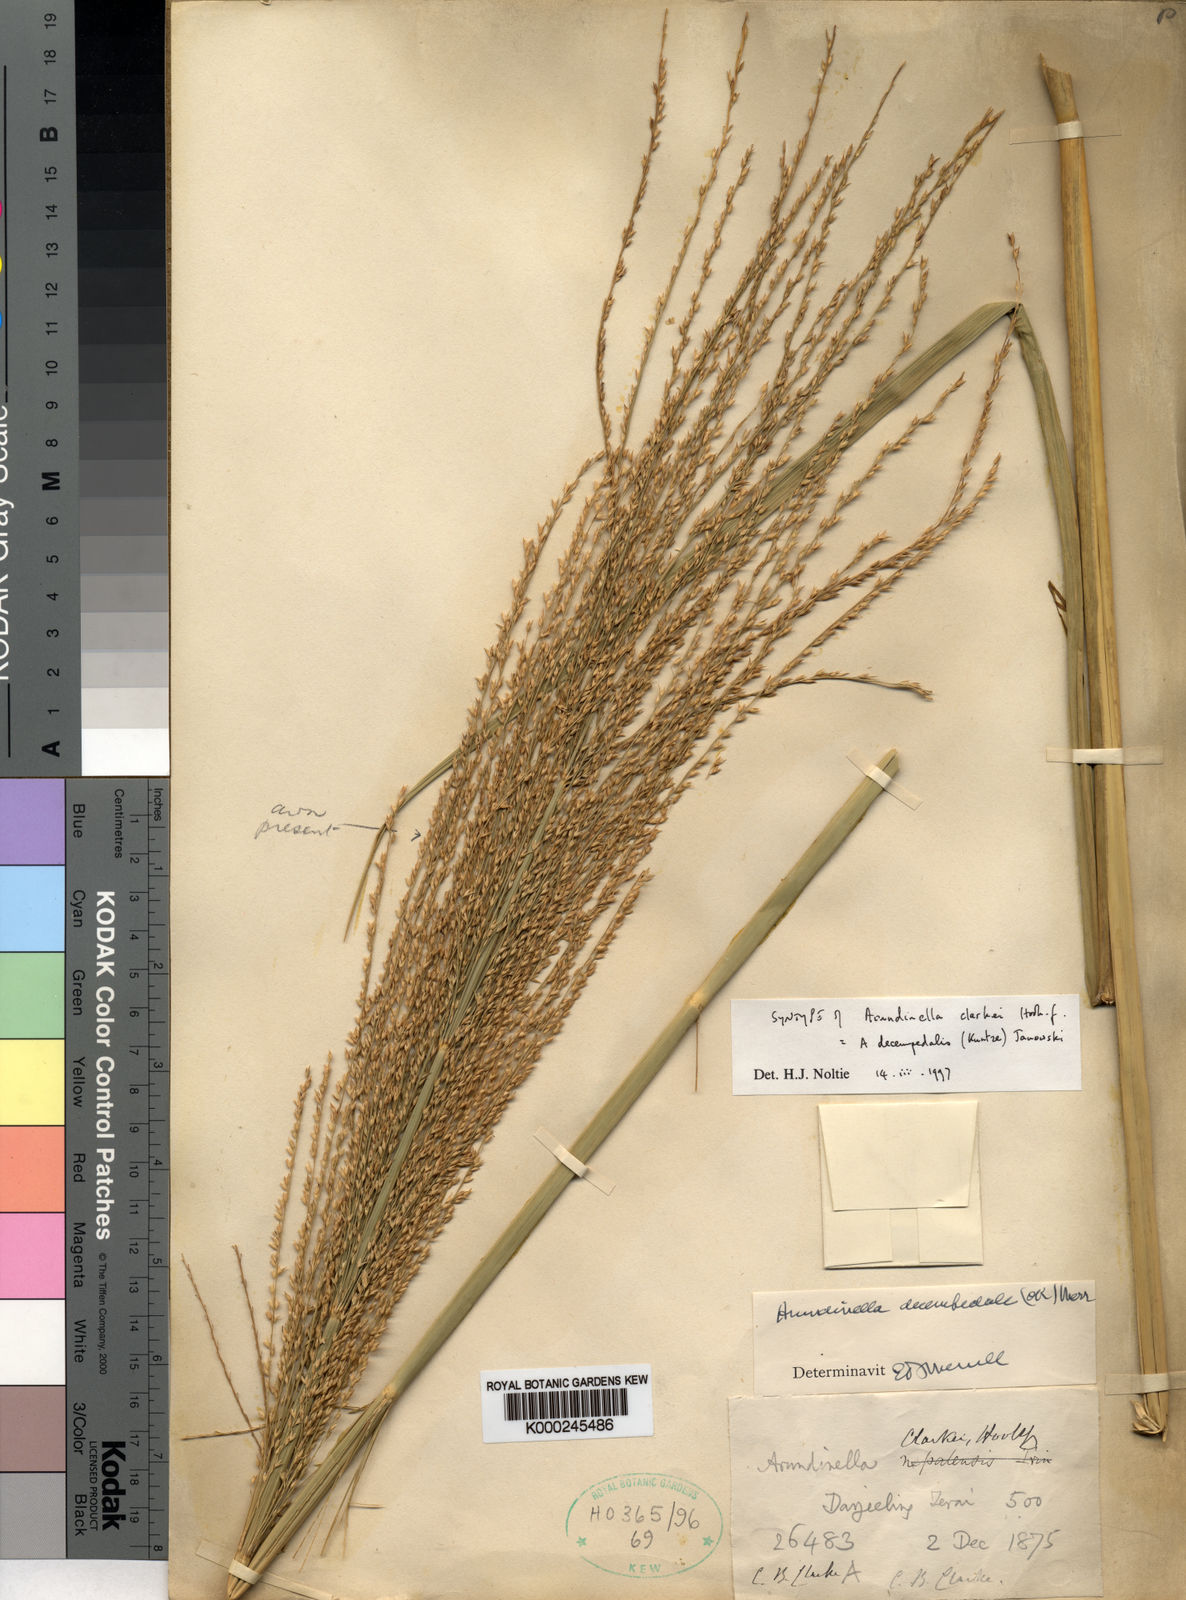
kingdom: Plantae
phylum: Tracheophyta
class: Liliopsida
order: Poales
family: Poaceae
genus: Arundinella
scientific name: Arundinella decempedalis
